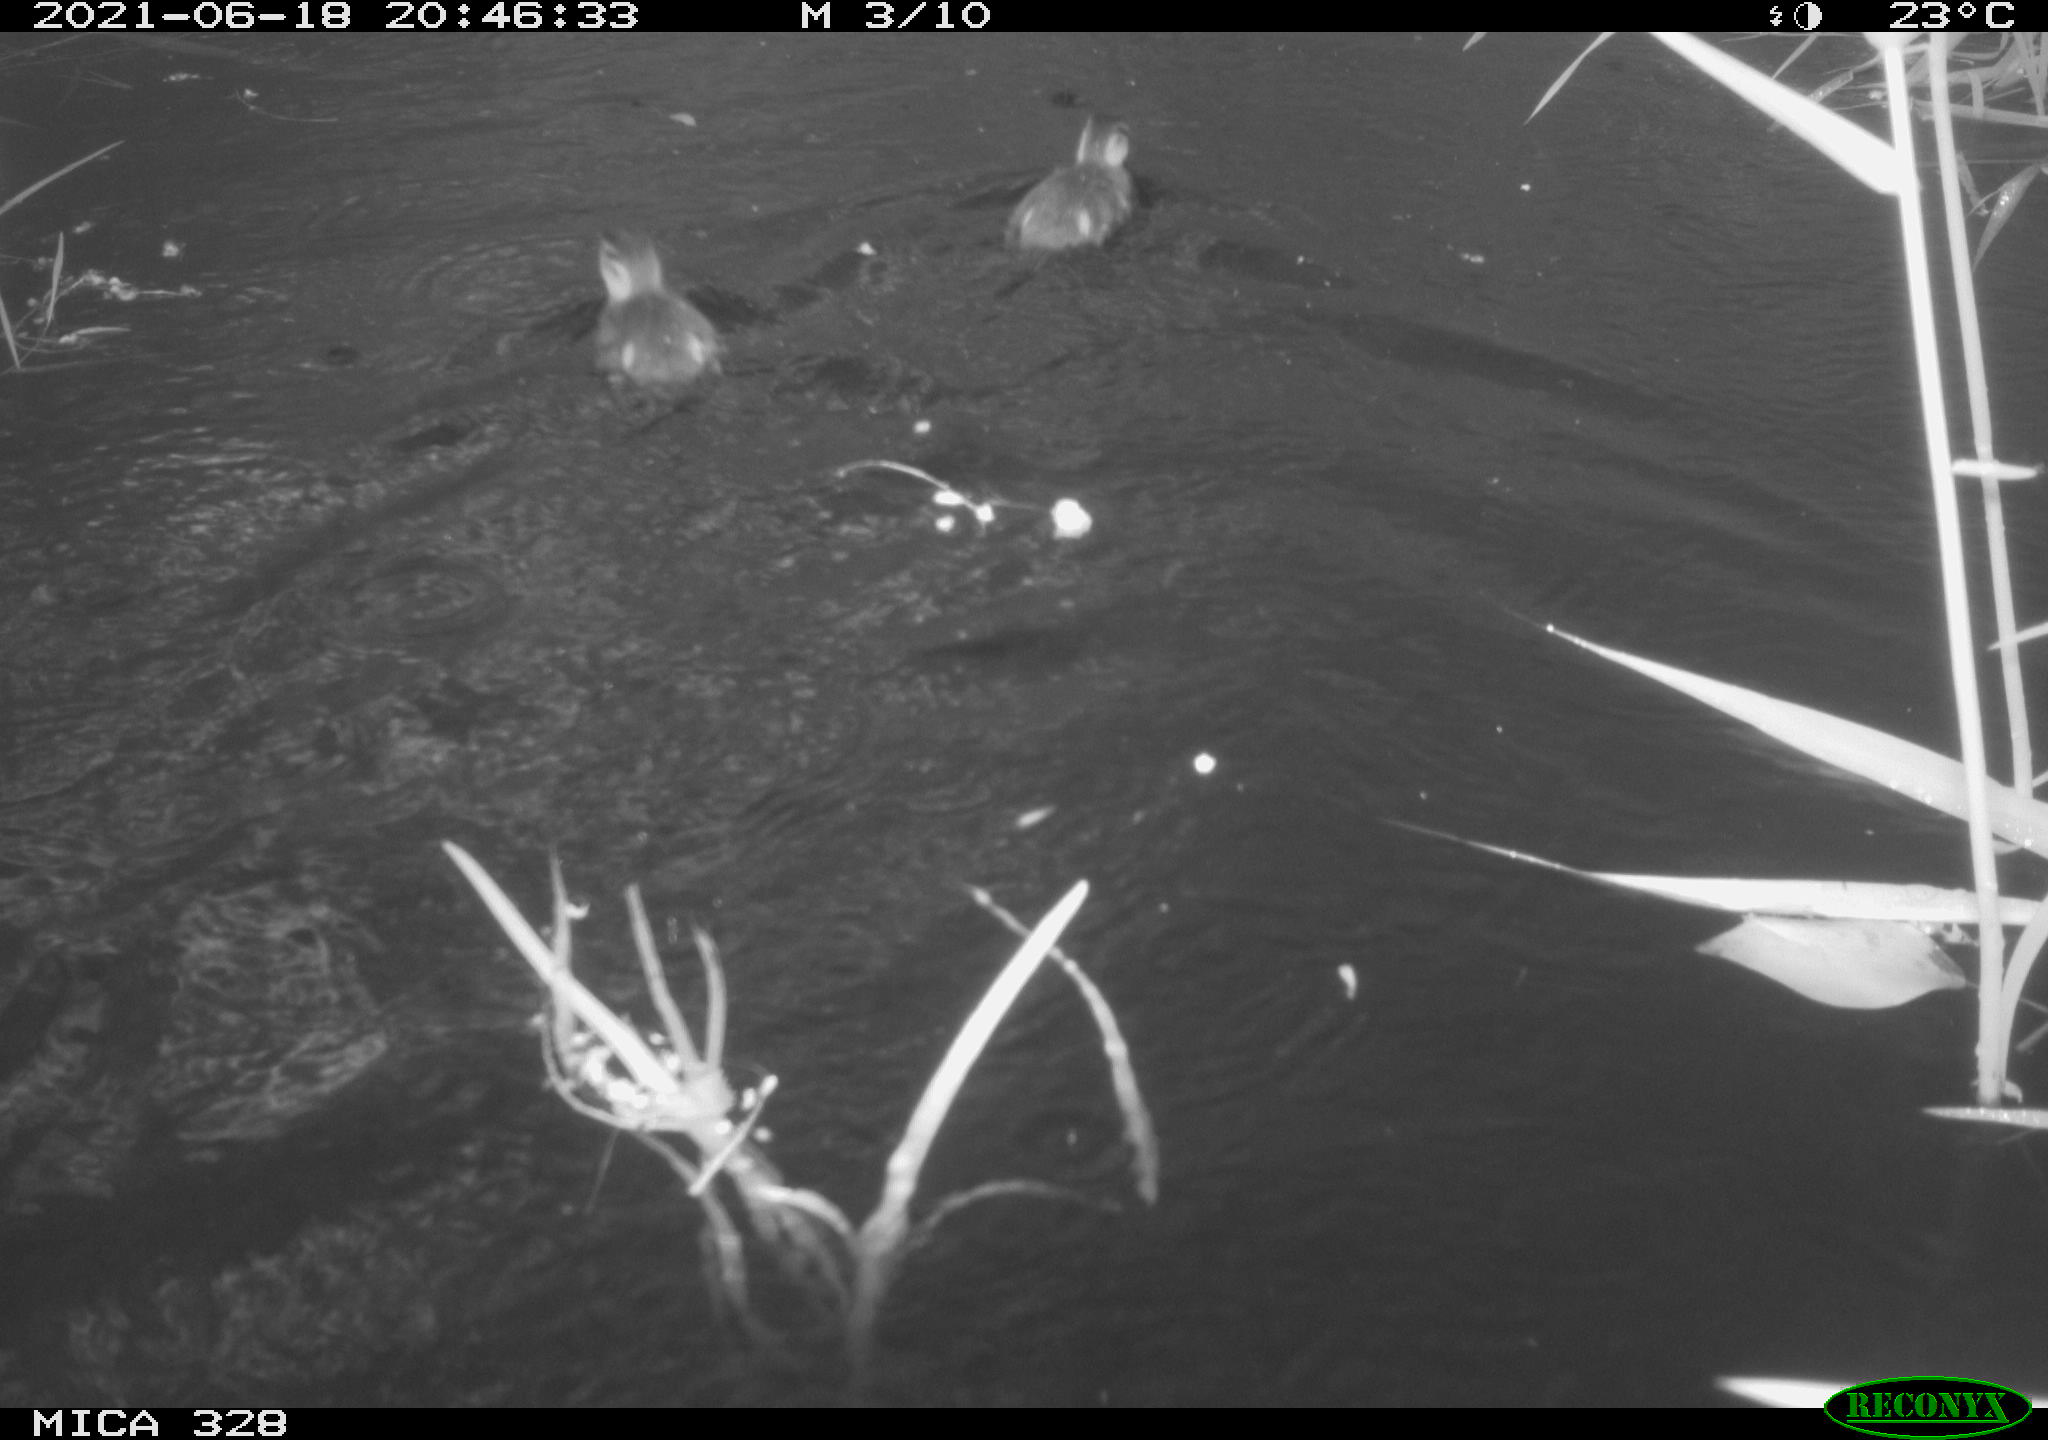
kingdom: Animalia
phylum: Chordata
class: Aves
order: Anseriformes
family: Anatidae
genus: Aix
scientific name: Aix galericulata
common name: Mandarin duck
